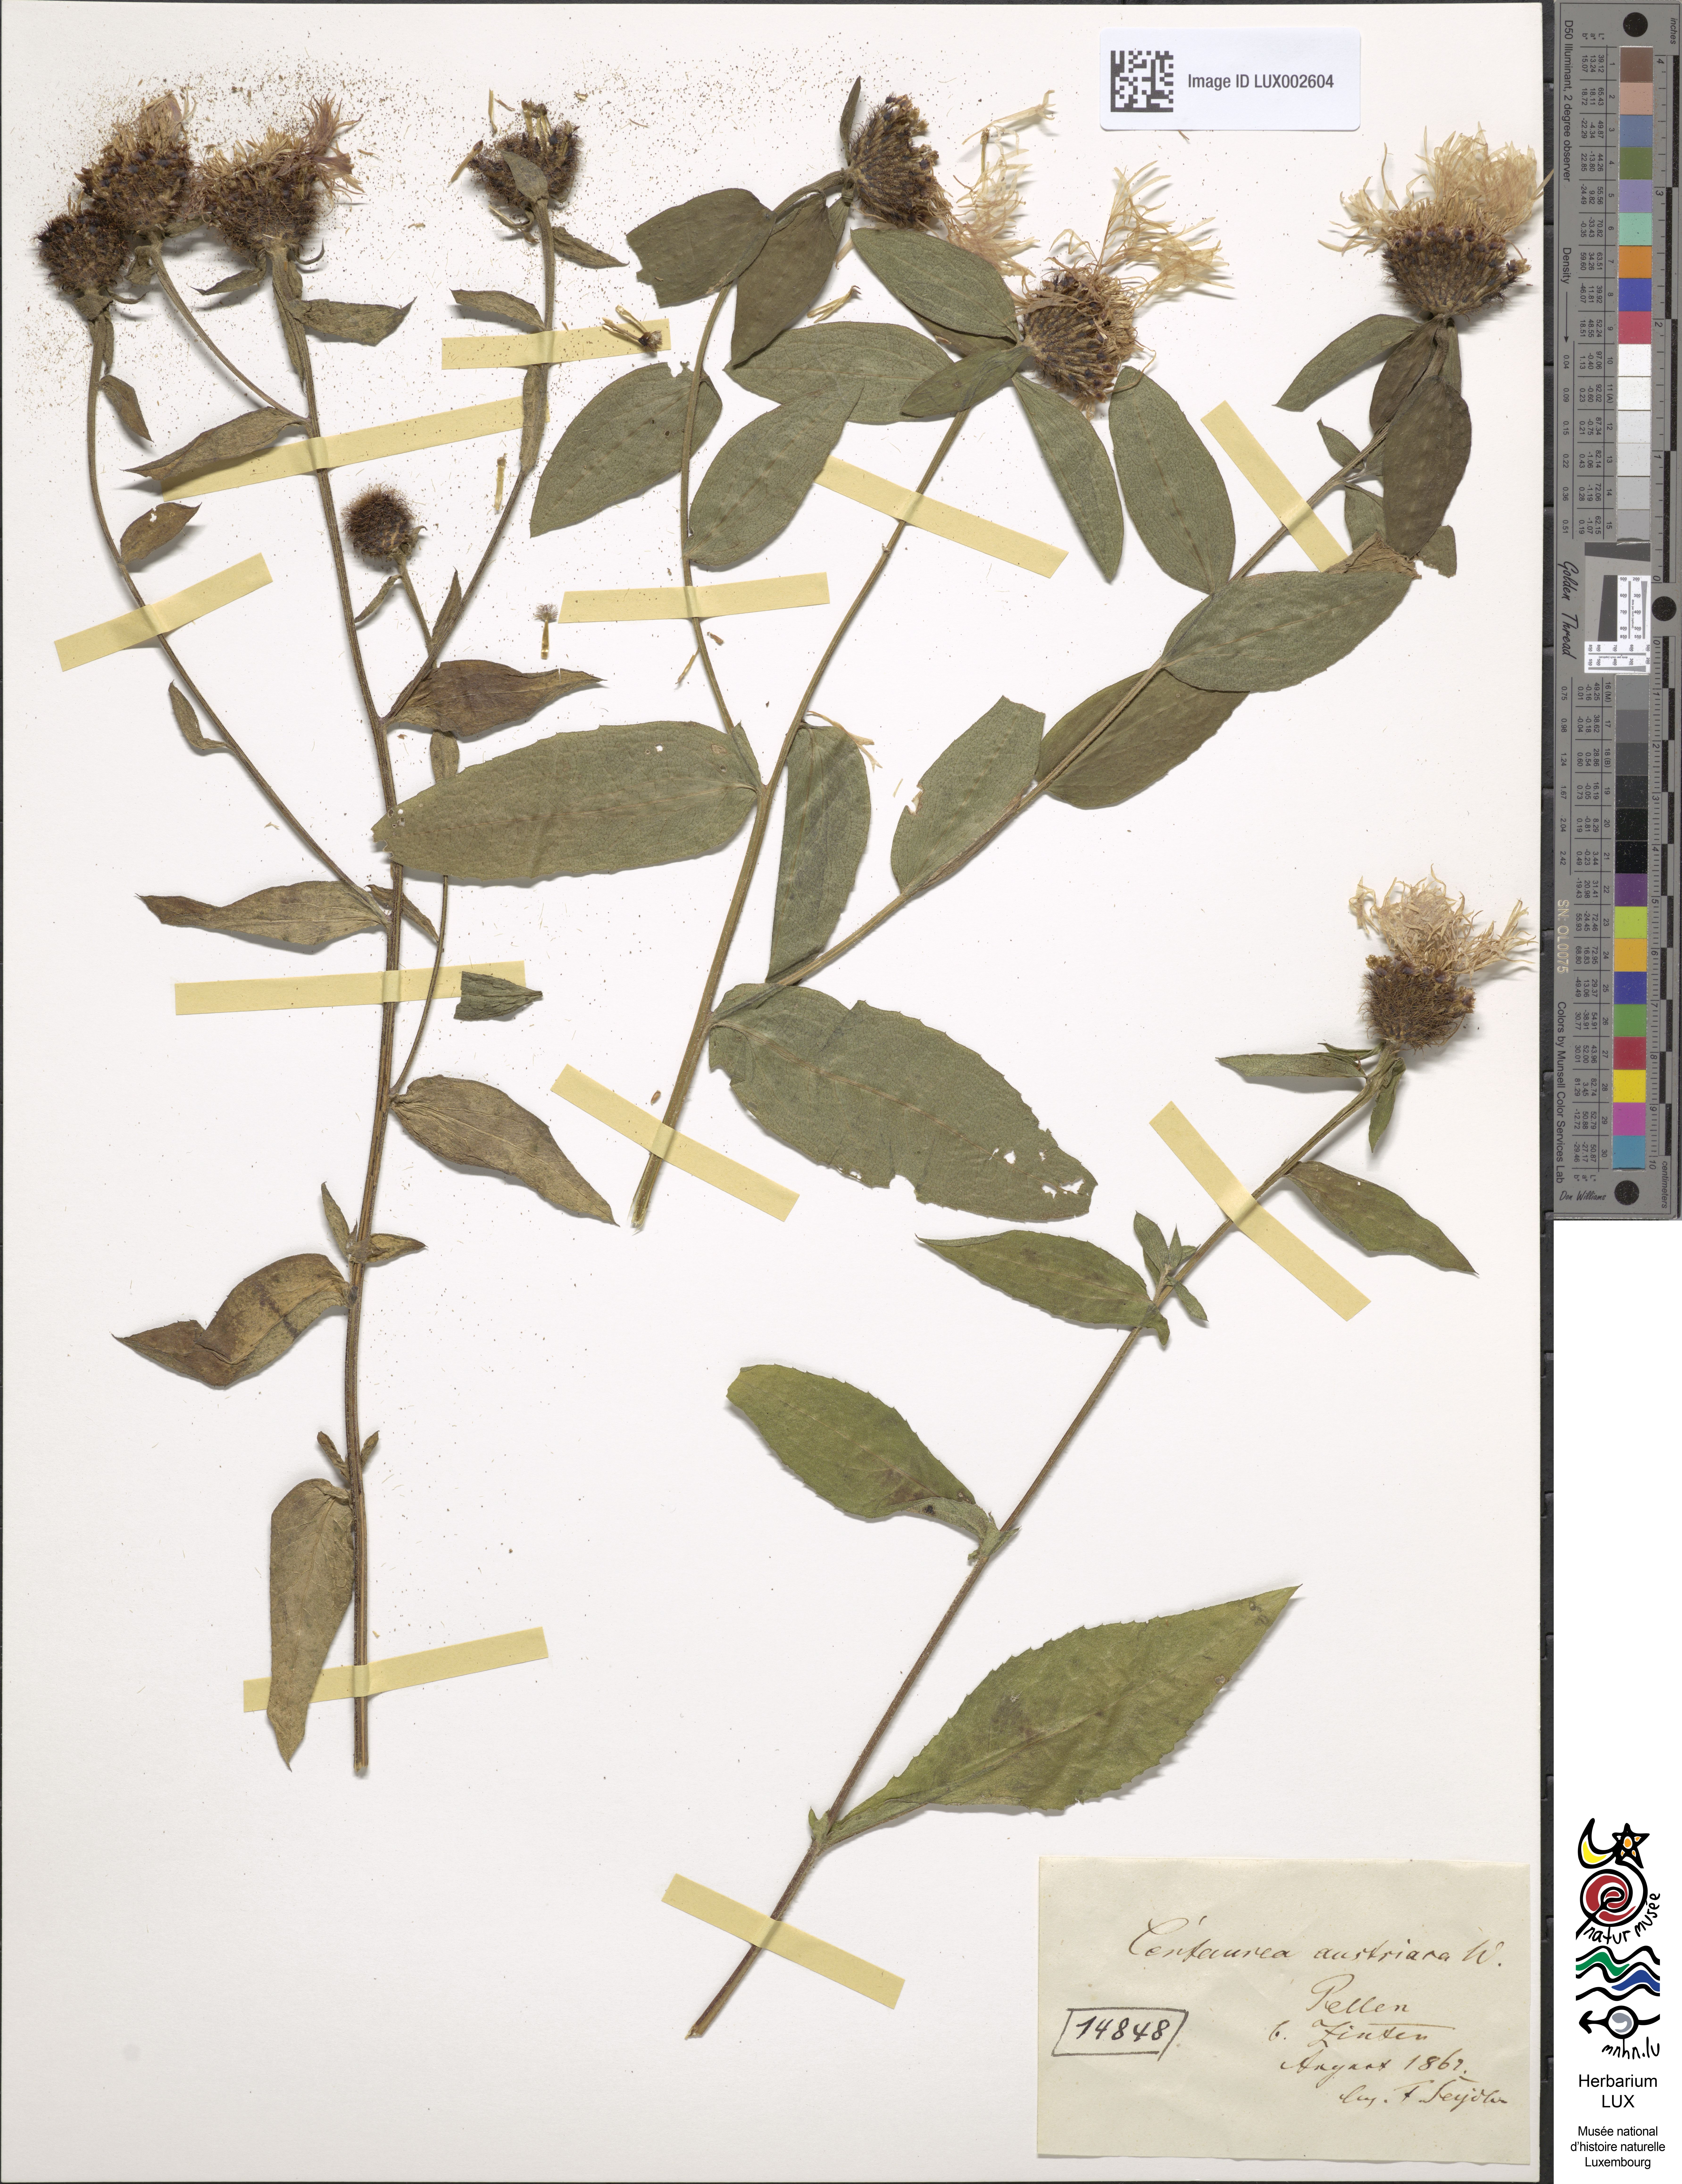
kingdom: Plantae
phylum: Tracheophyta
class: Magnoliopsida
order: Asterales
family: Asteraceae
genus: Centaurea
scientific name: Centaurea phrygia
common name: Wig knapweed
